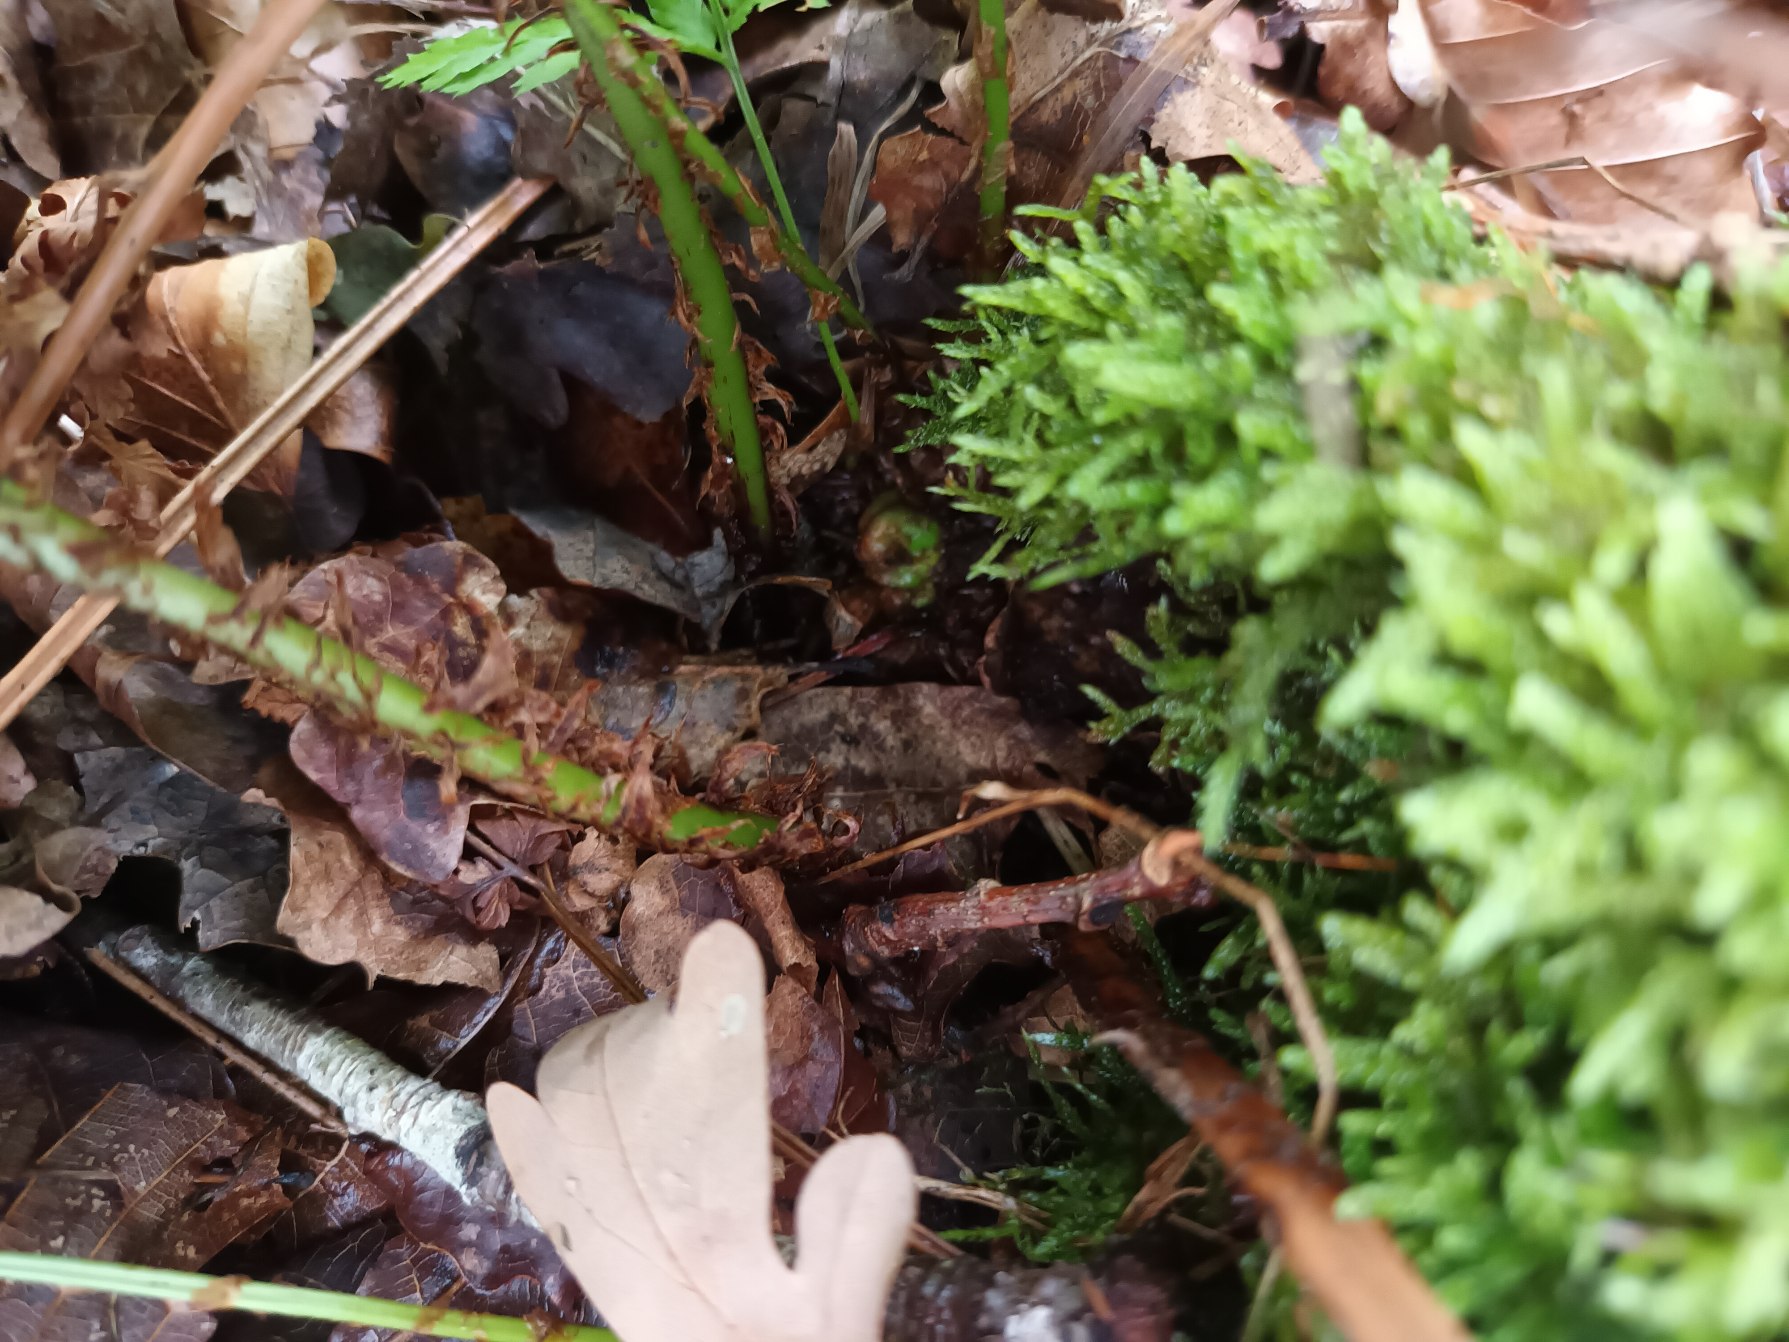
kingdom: Plantae
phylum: Tracheophyta
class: Polypodiopsida
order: Polypodiales
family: Dryopteridaceae
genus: Dryopteris
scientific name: Dryopteris dilatata
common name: Bredbladet mangeløv
